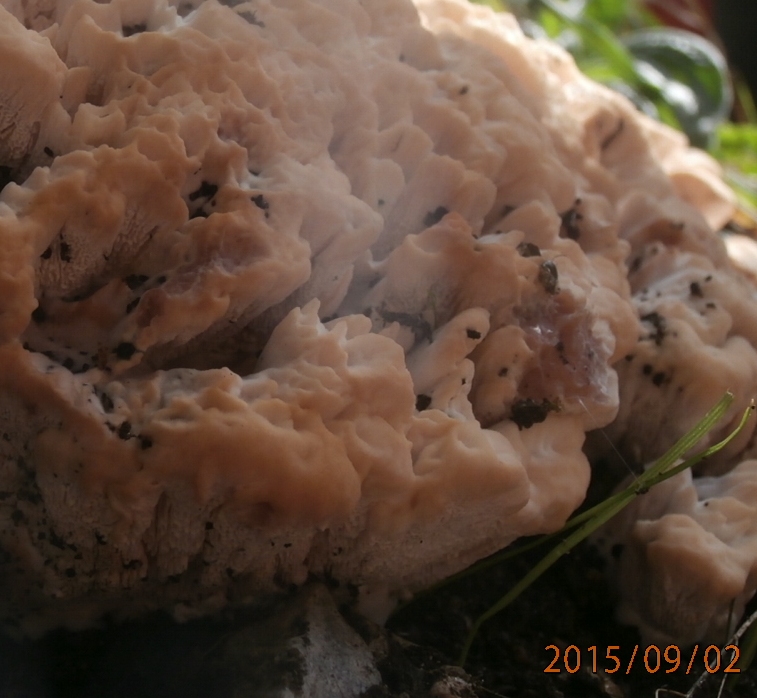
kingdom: Fungi
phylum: Basidiomycota
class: Agaricomycetes
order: Polyporales
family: Podoscyphaceae
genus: Abortiporus
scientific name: Abortiporus biennis
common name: rødmende pjalteporesvamp
